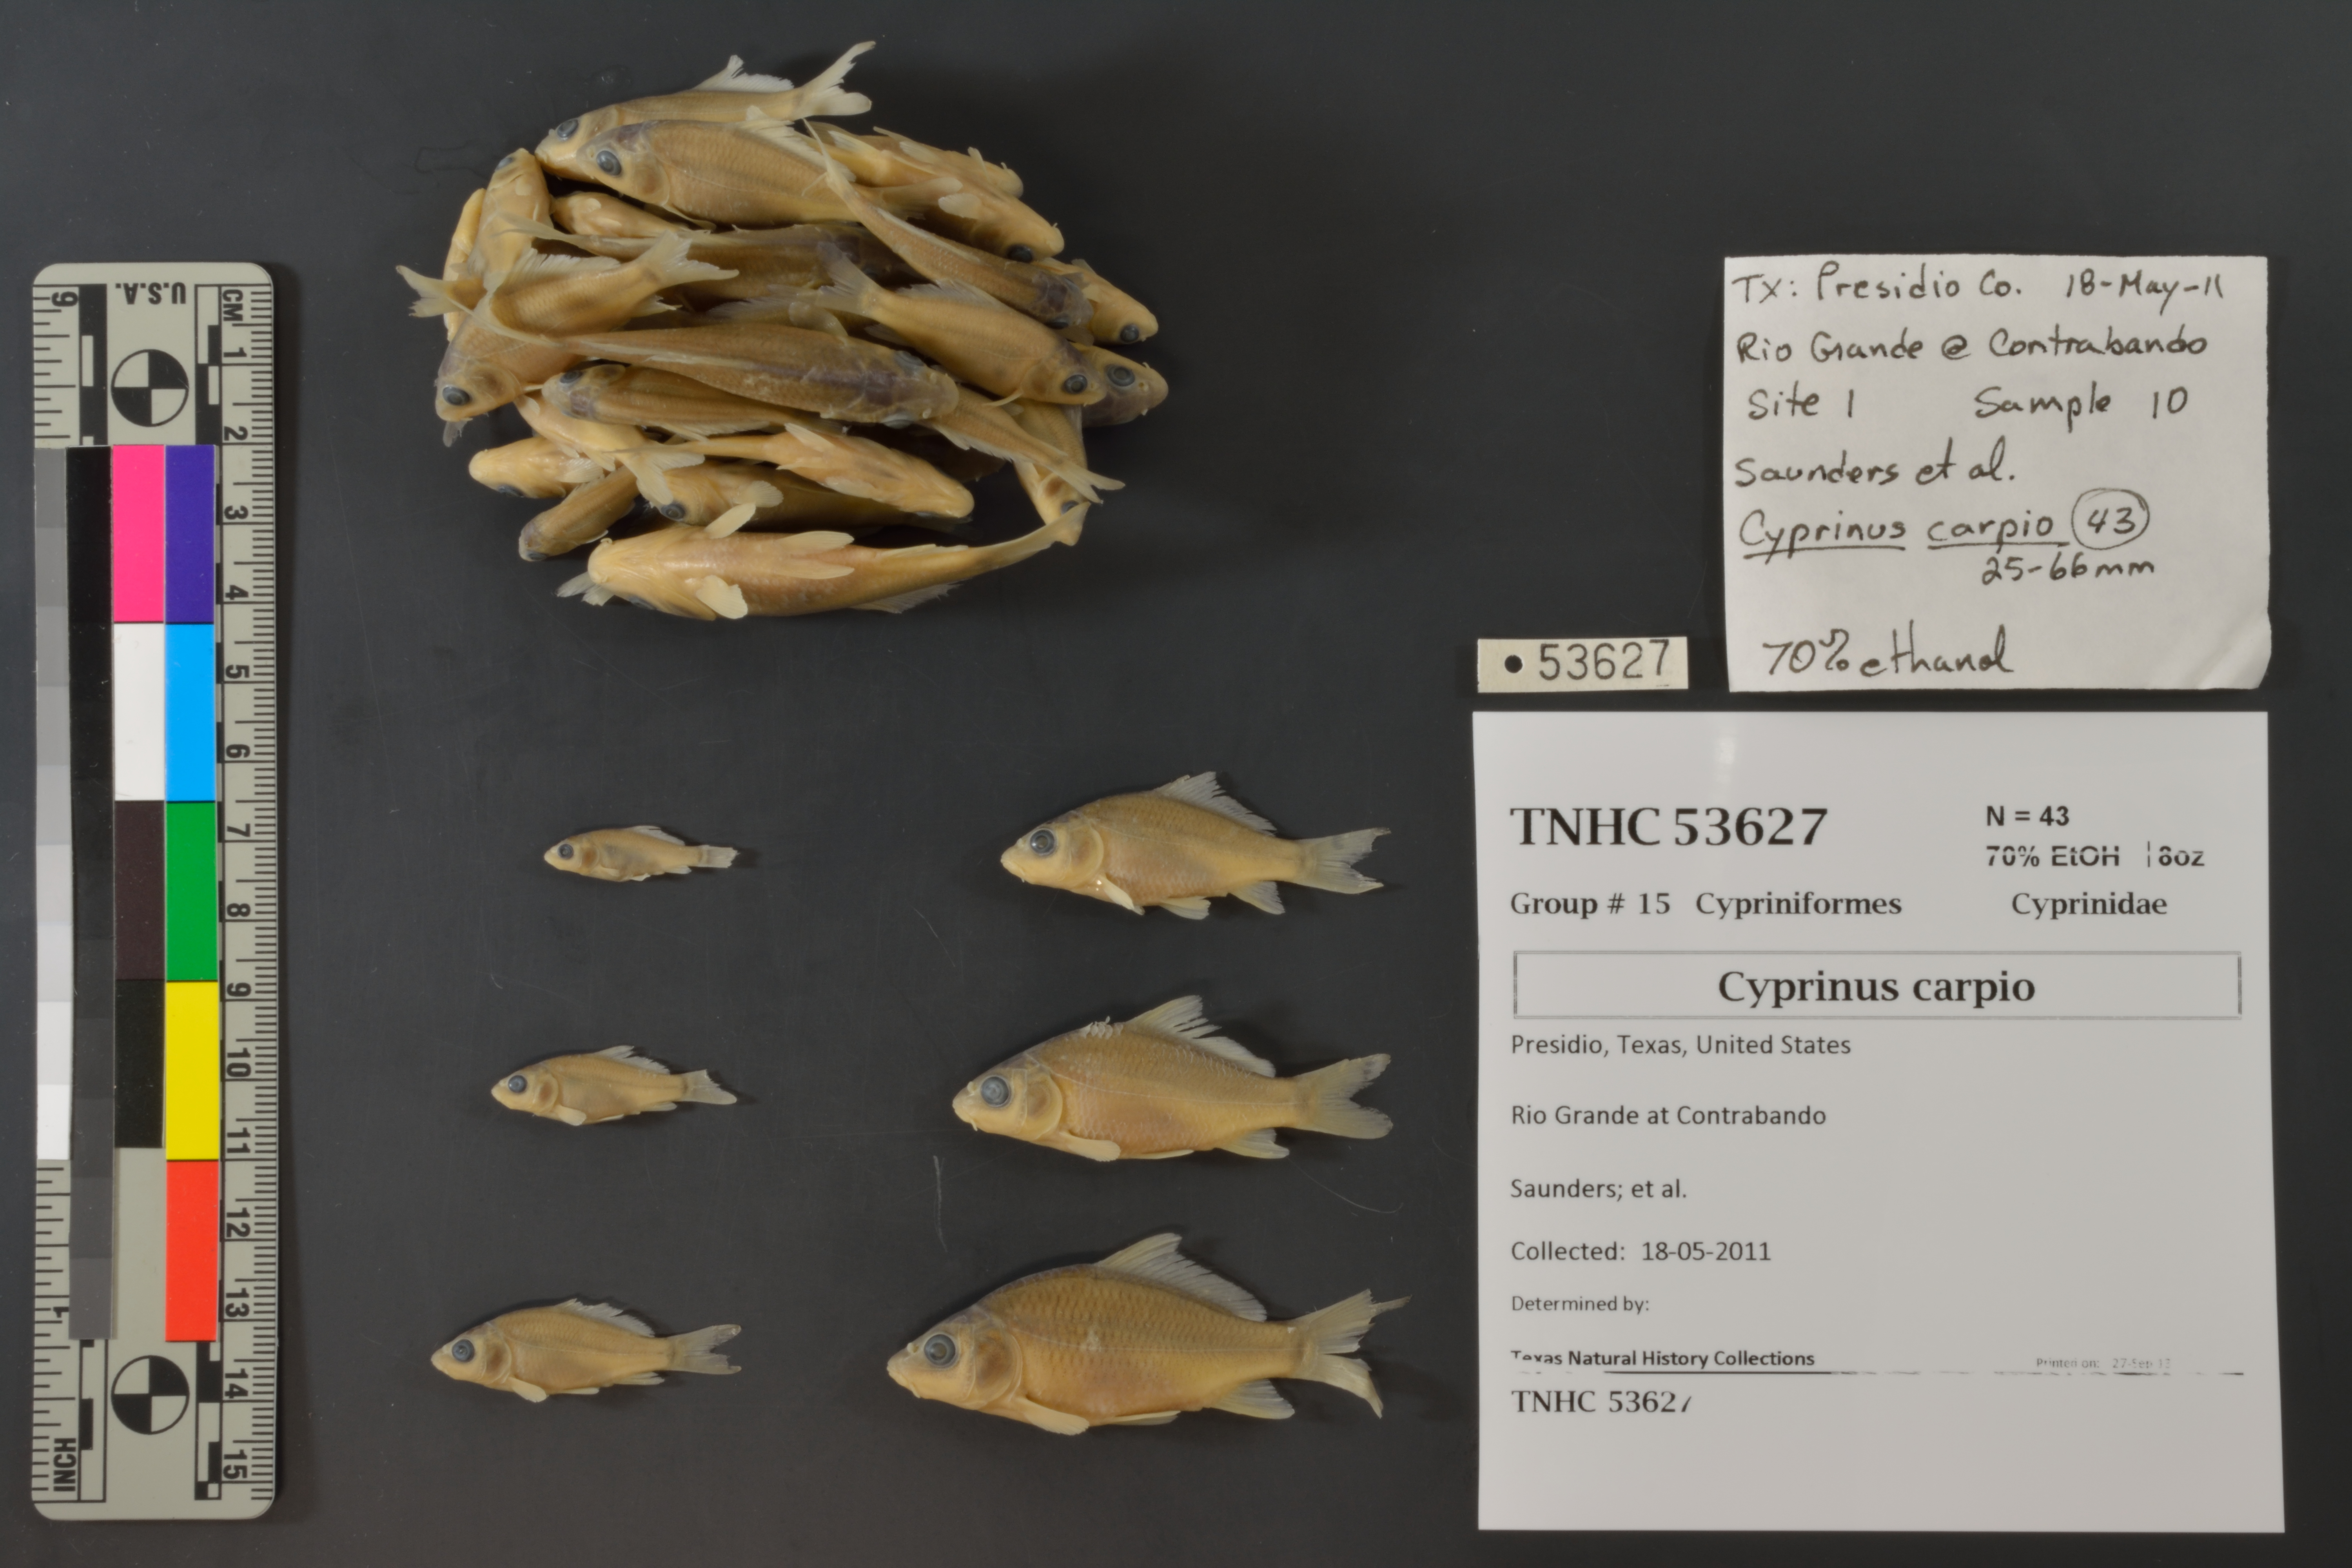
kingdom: Animalia
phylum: Chordata
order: Cypriniformes
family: Cyprinidae
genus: Cyprinus
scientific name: Cyprinus carpio
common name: Common carp
